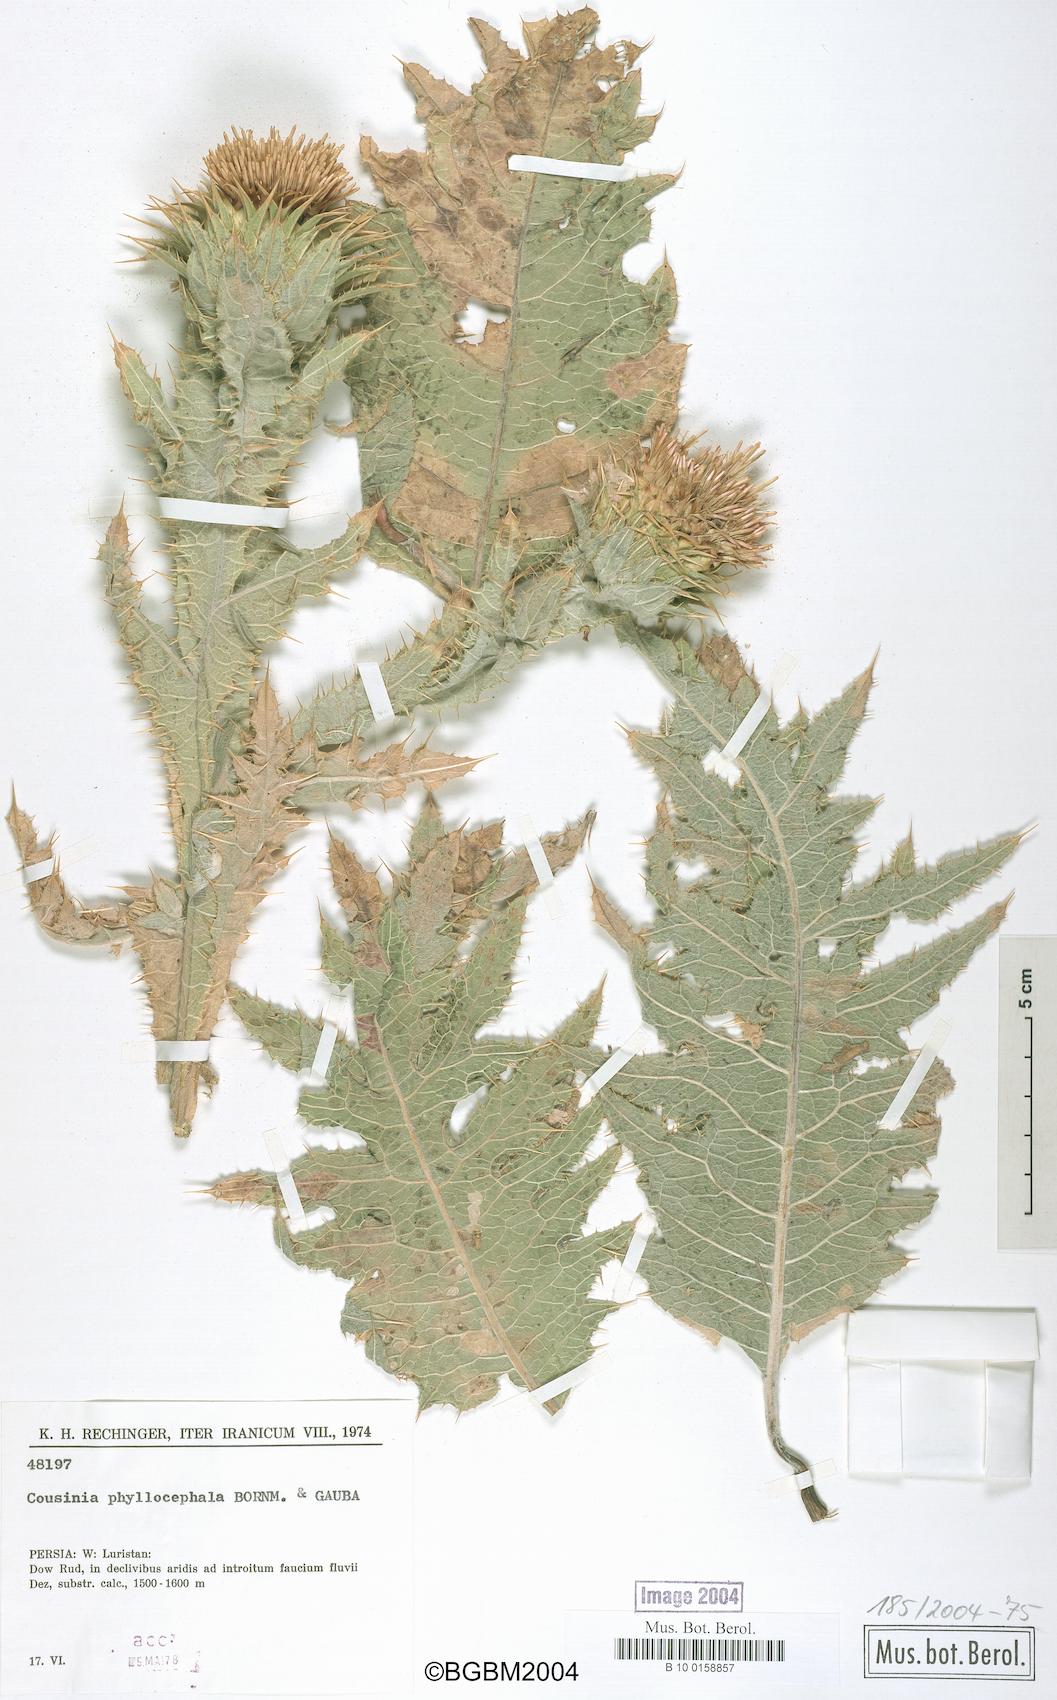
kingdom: Plantae
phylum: Tracheophyta
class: Magnoliopsida
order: Asterales
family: Asteraceae
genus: Cousinia
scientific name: Cousinia phyllocephala
